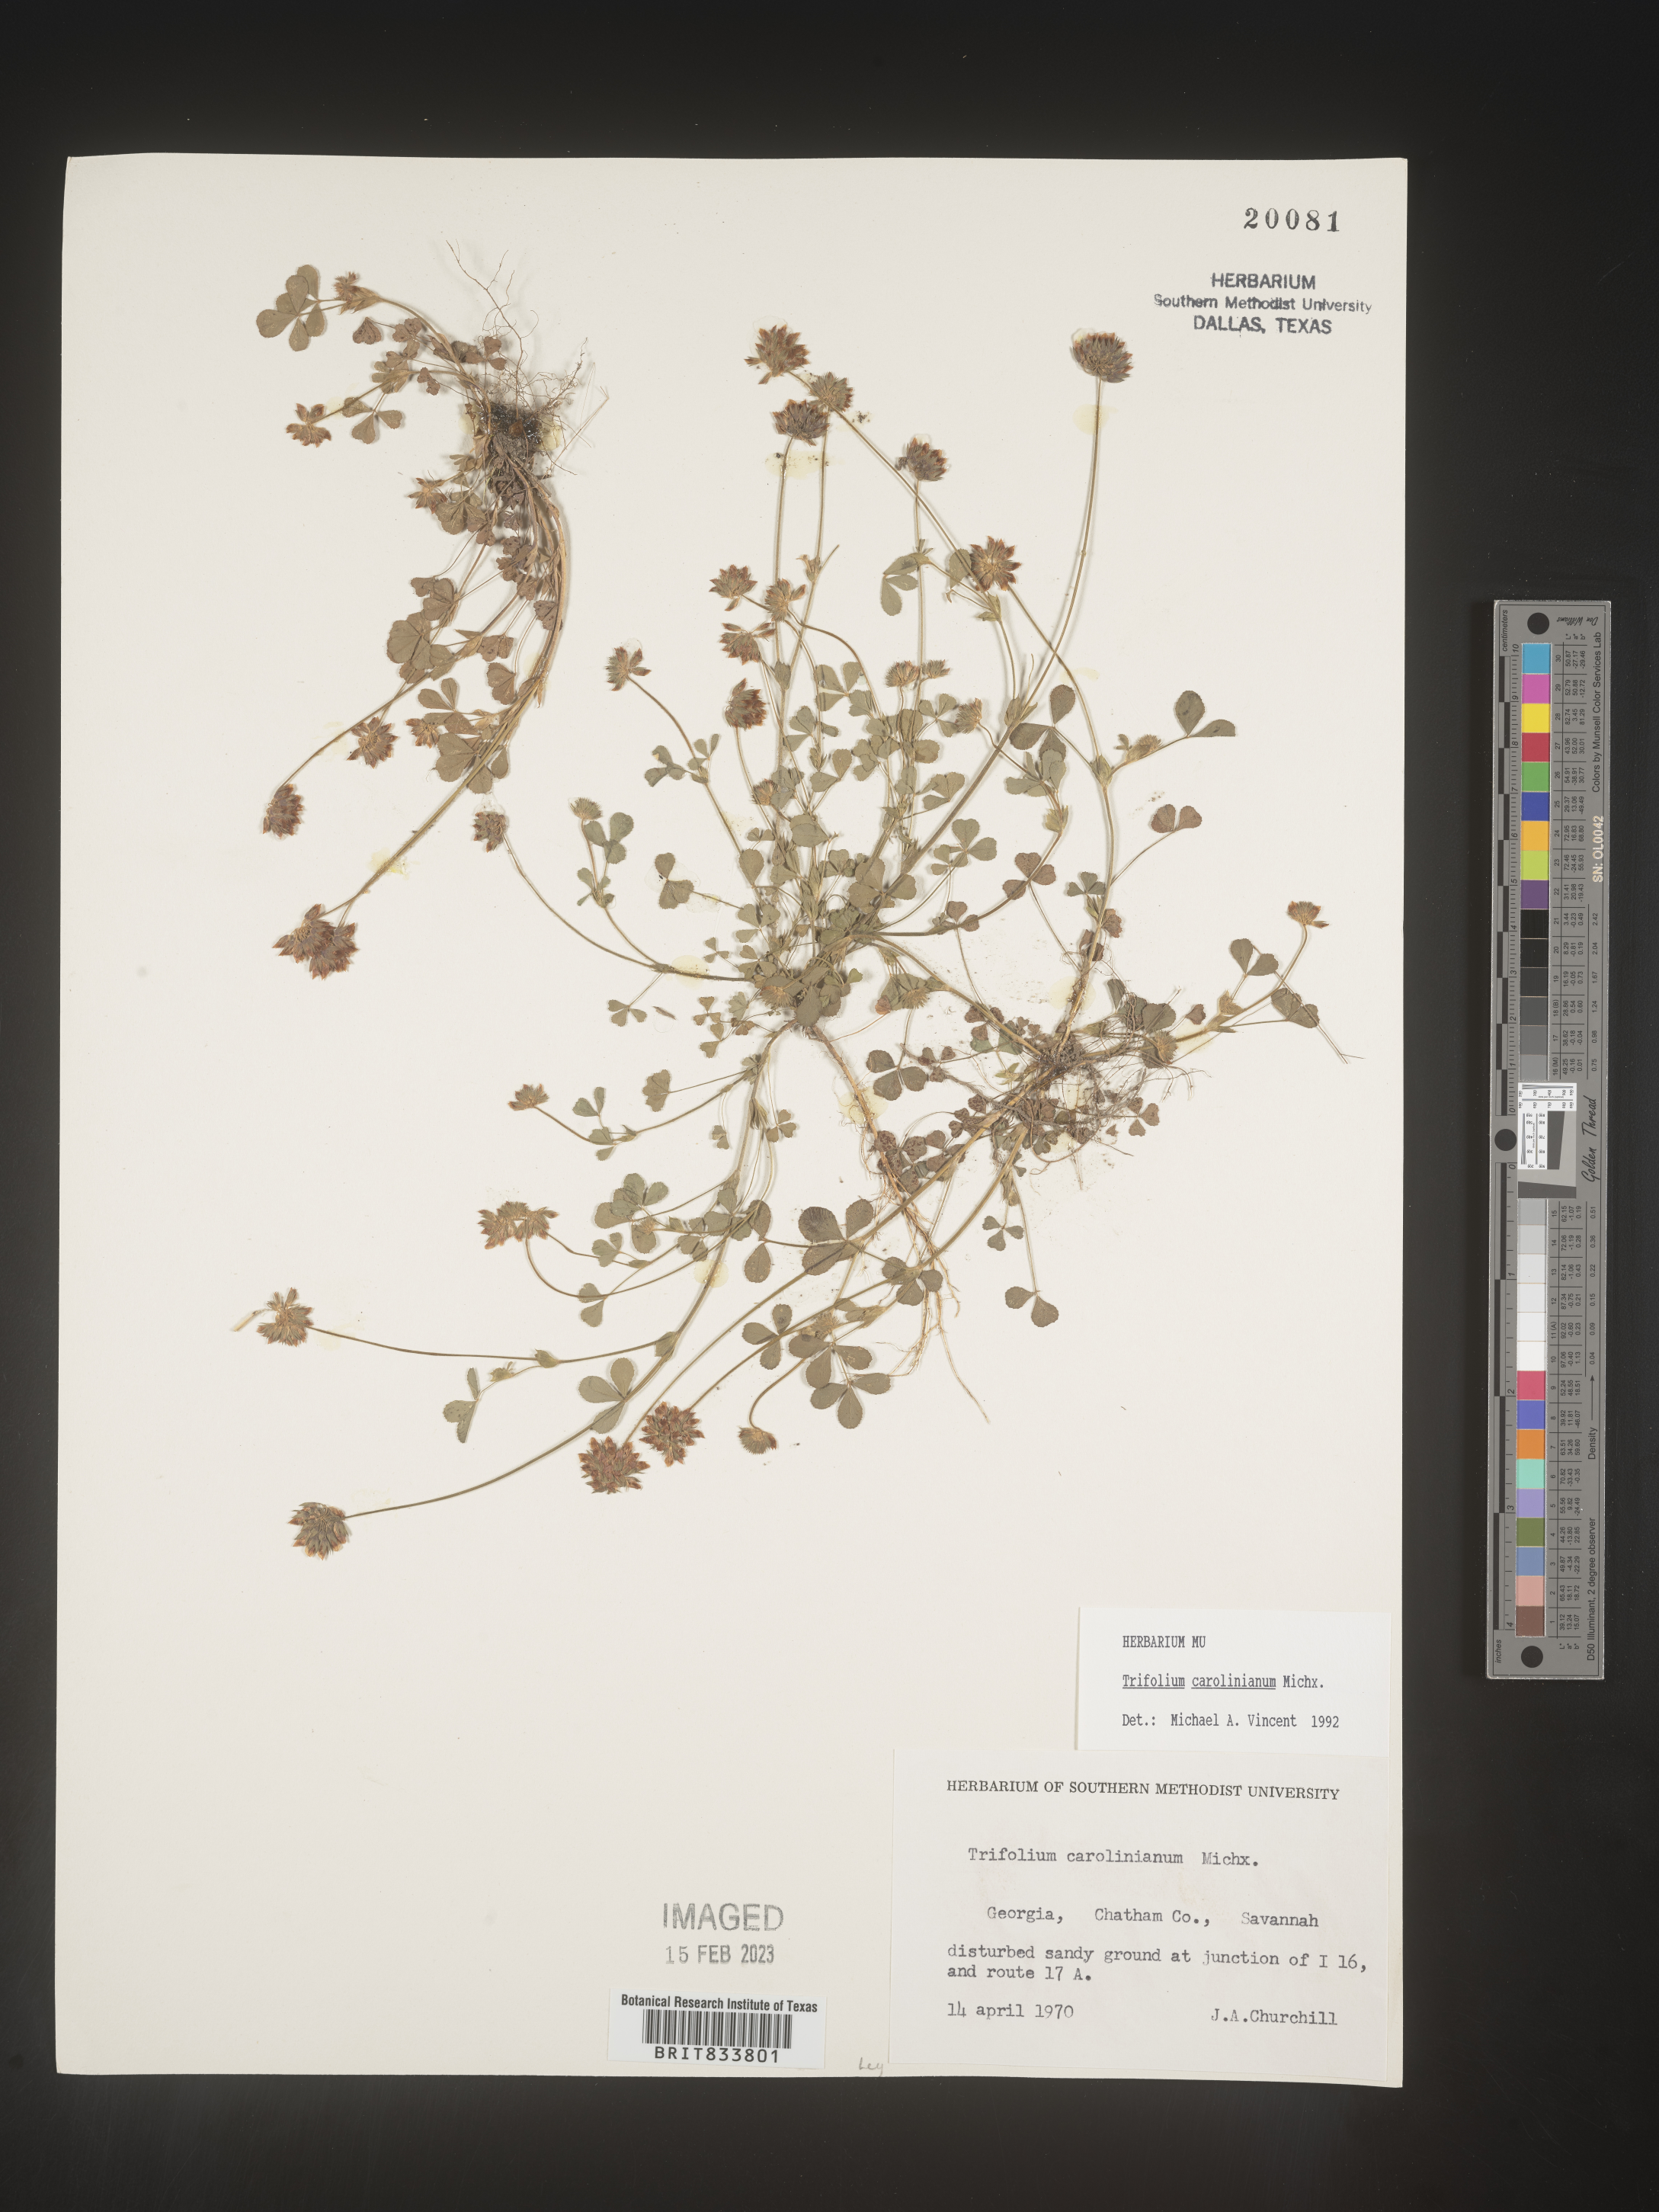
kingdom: Plantae
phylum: Tracheophyta
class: Magnoliopsida
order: Fabales
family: Fabaceae
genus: Trifolium
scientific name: Trifolium carolinianum
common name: Wild white clover
